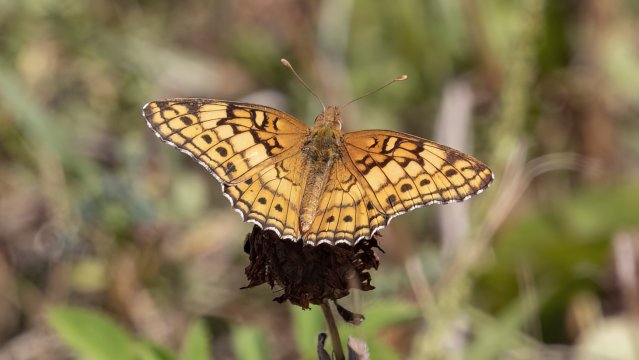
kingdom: Animalia
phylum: Arthropoda
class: Insecta
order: Lepidoptera
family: Nymphalidae
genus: Euptoieta
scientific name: Euptoieta claudia
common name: Variegated Fritillary
